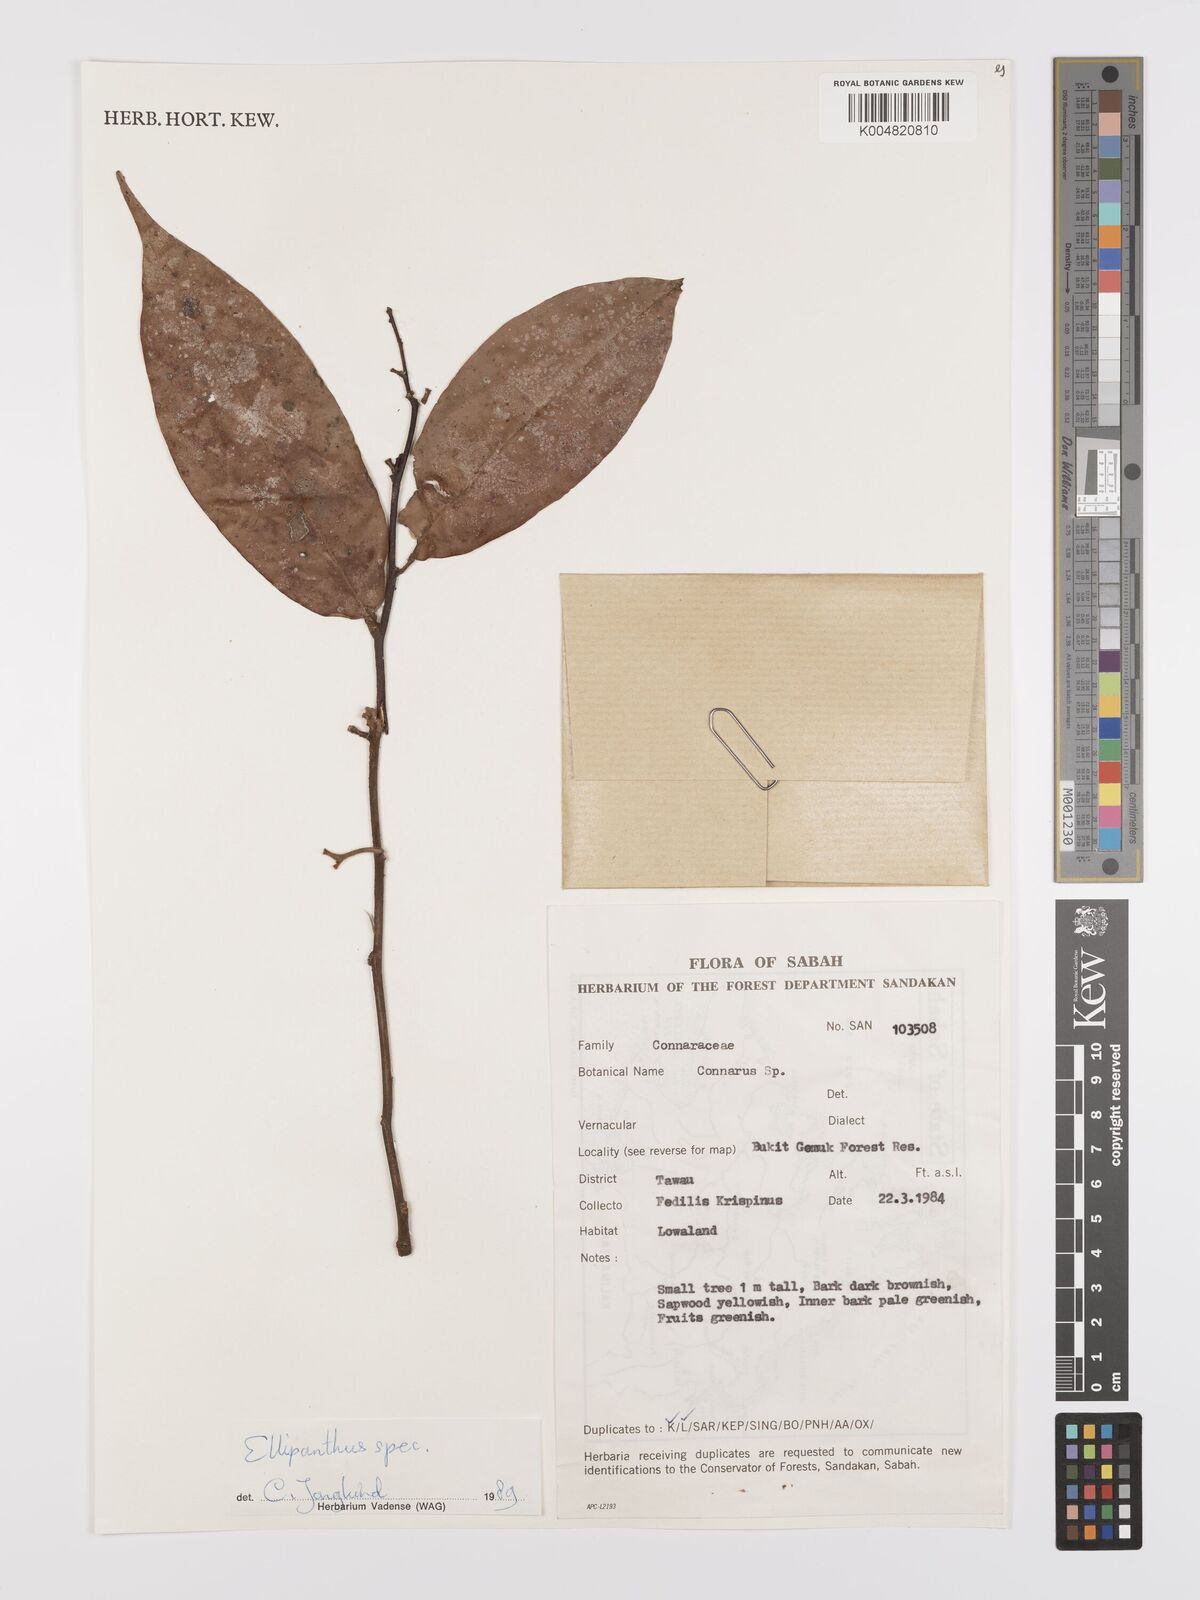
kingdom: Plantae
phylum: Tracheophyta
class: Magnoliopsida
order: Oxalidales
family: Connaraceae
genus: Ellipanthus
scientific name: Ellipanthus
